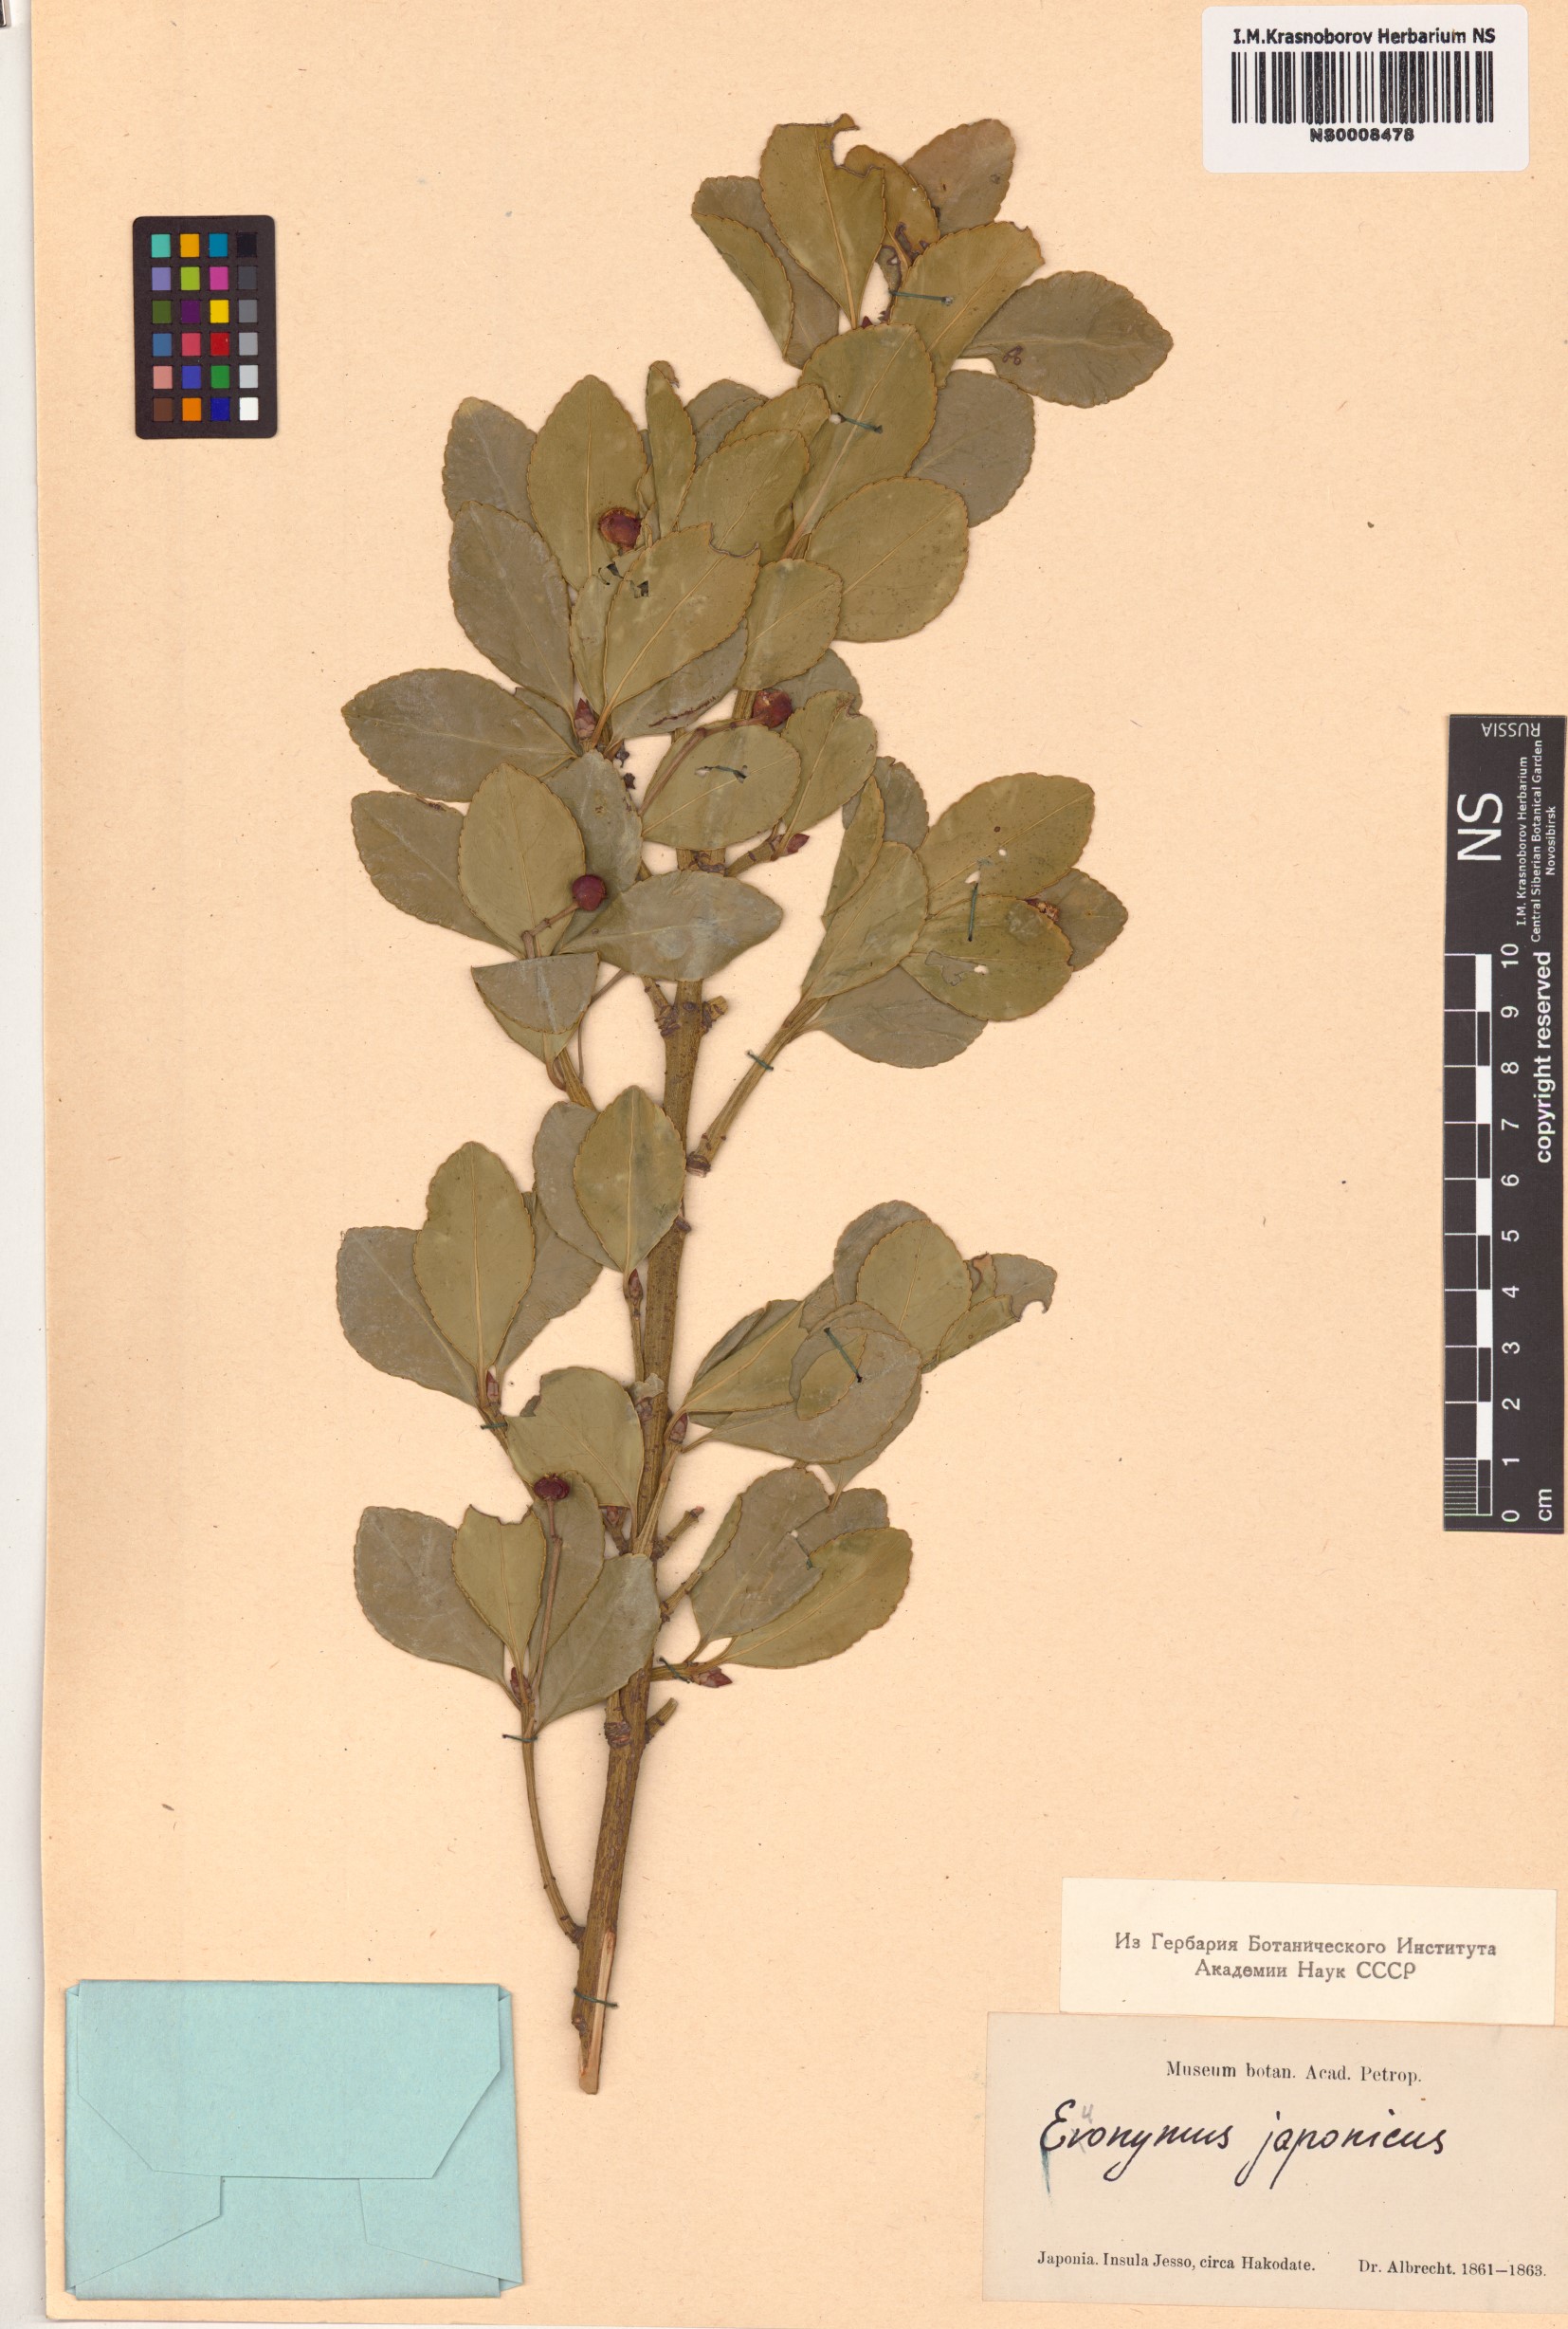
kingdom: Plantae
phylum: Tracheophyta
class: Magnoliopsida
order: Celastrales
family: Celastraceae
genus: Euonymus
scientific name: Euonymus japonicus
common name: Japanese spindletree
